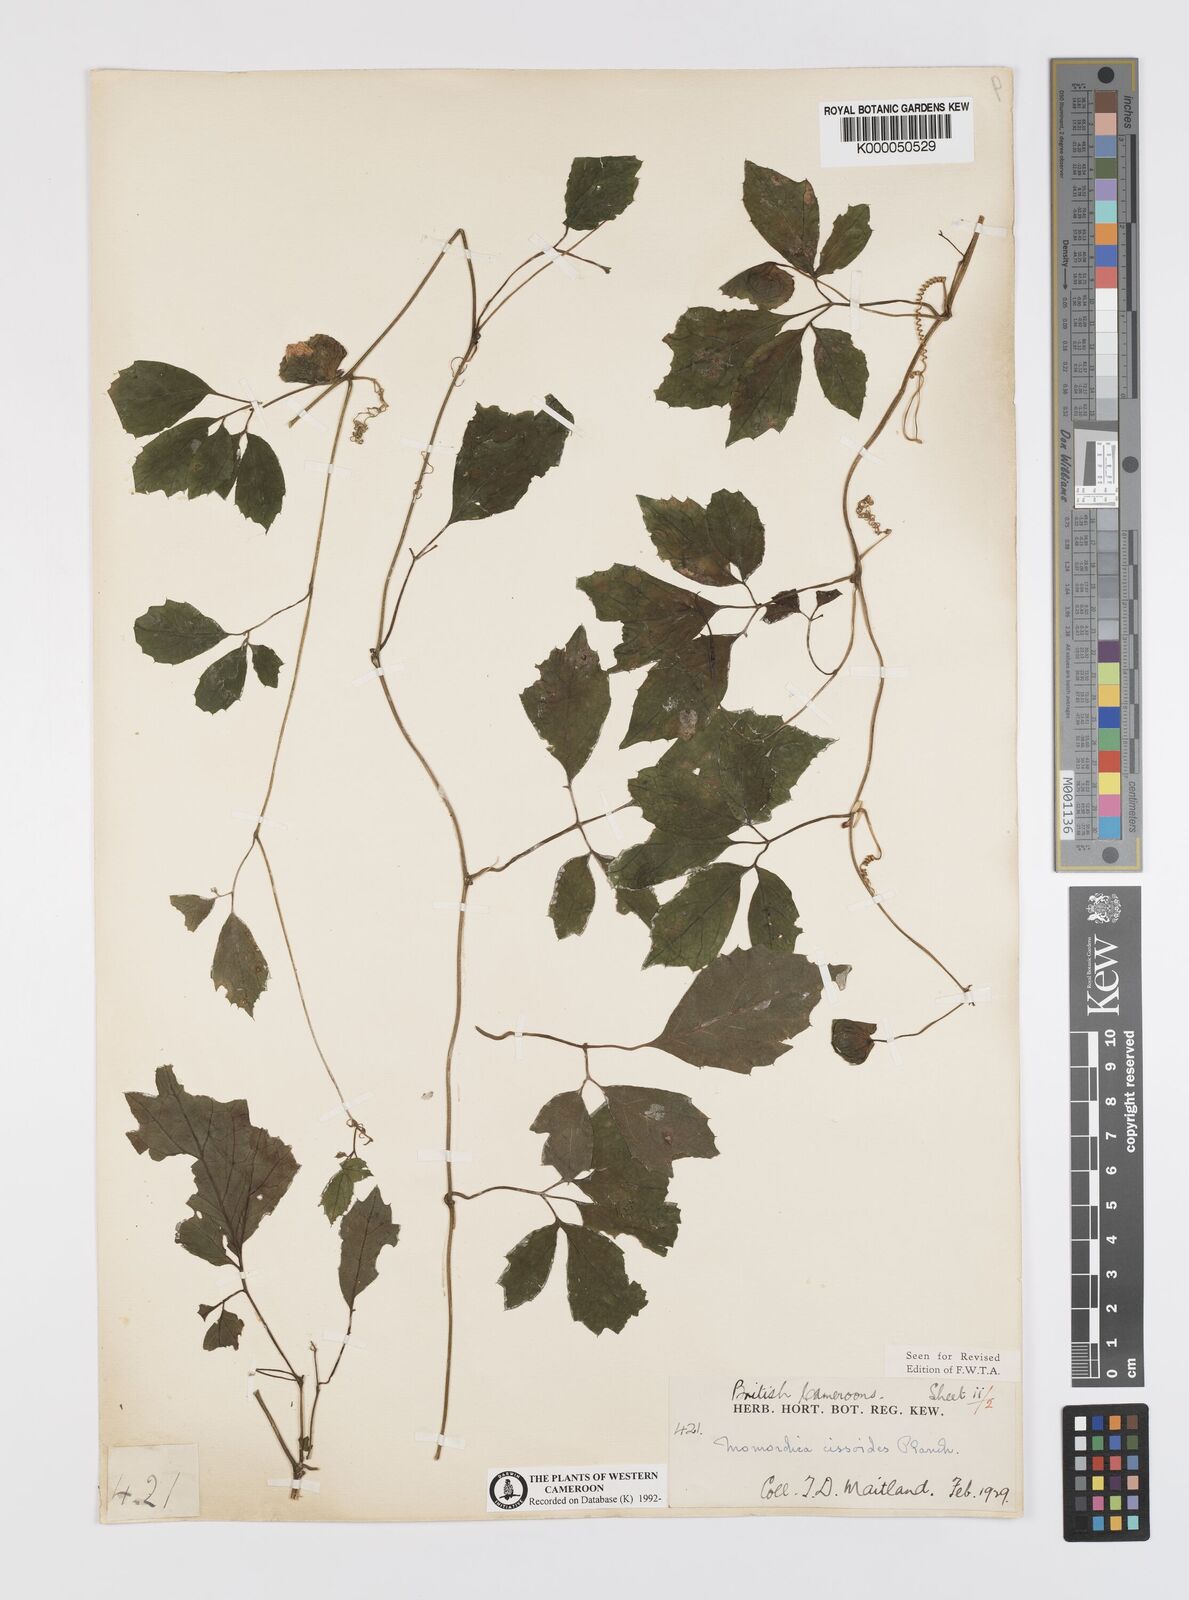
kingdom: Plantae
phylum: Tracheophyta
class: Magnoliopsida
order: Cucurbitales
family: Cucurbitaceae
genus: Momordica
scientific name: Momordica cissoides
